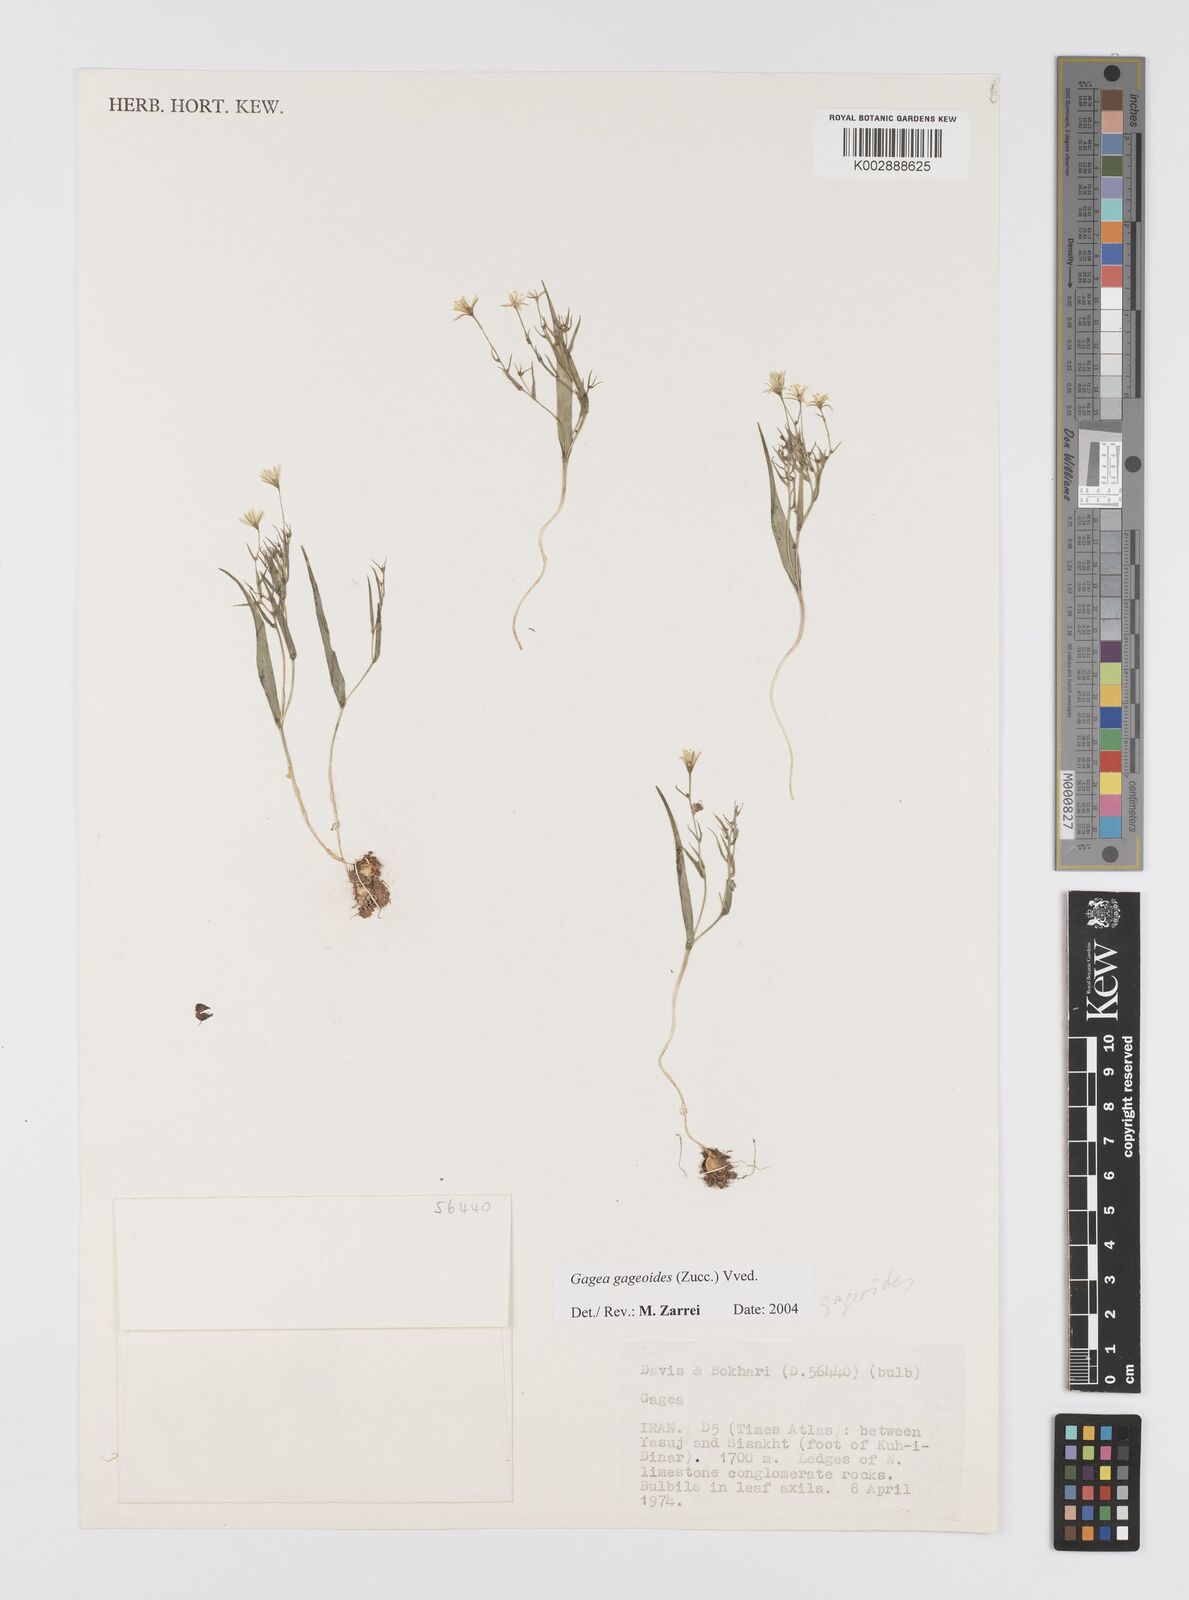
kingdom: Plantae
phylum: Tracheophyta
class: Liliopsida
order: Liliales
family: Liliaceae
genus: Gagea
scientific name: Gagea gageoides
